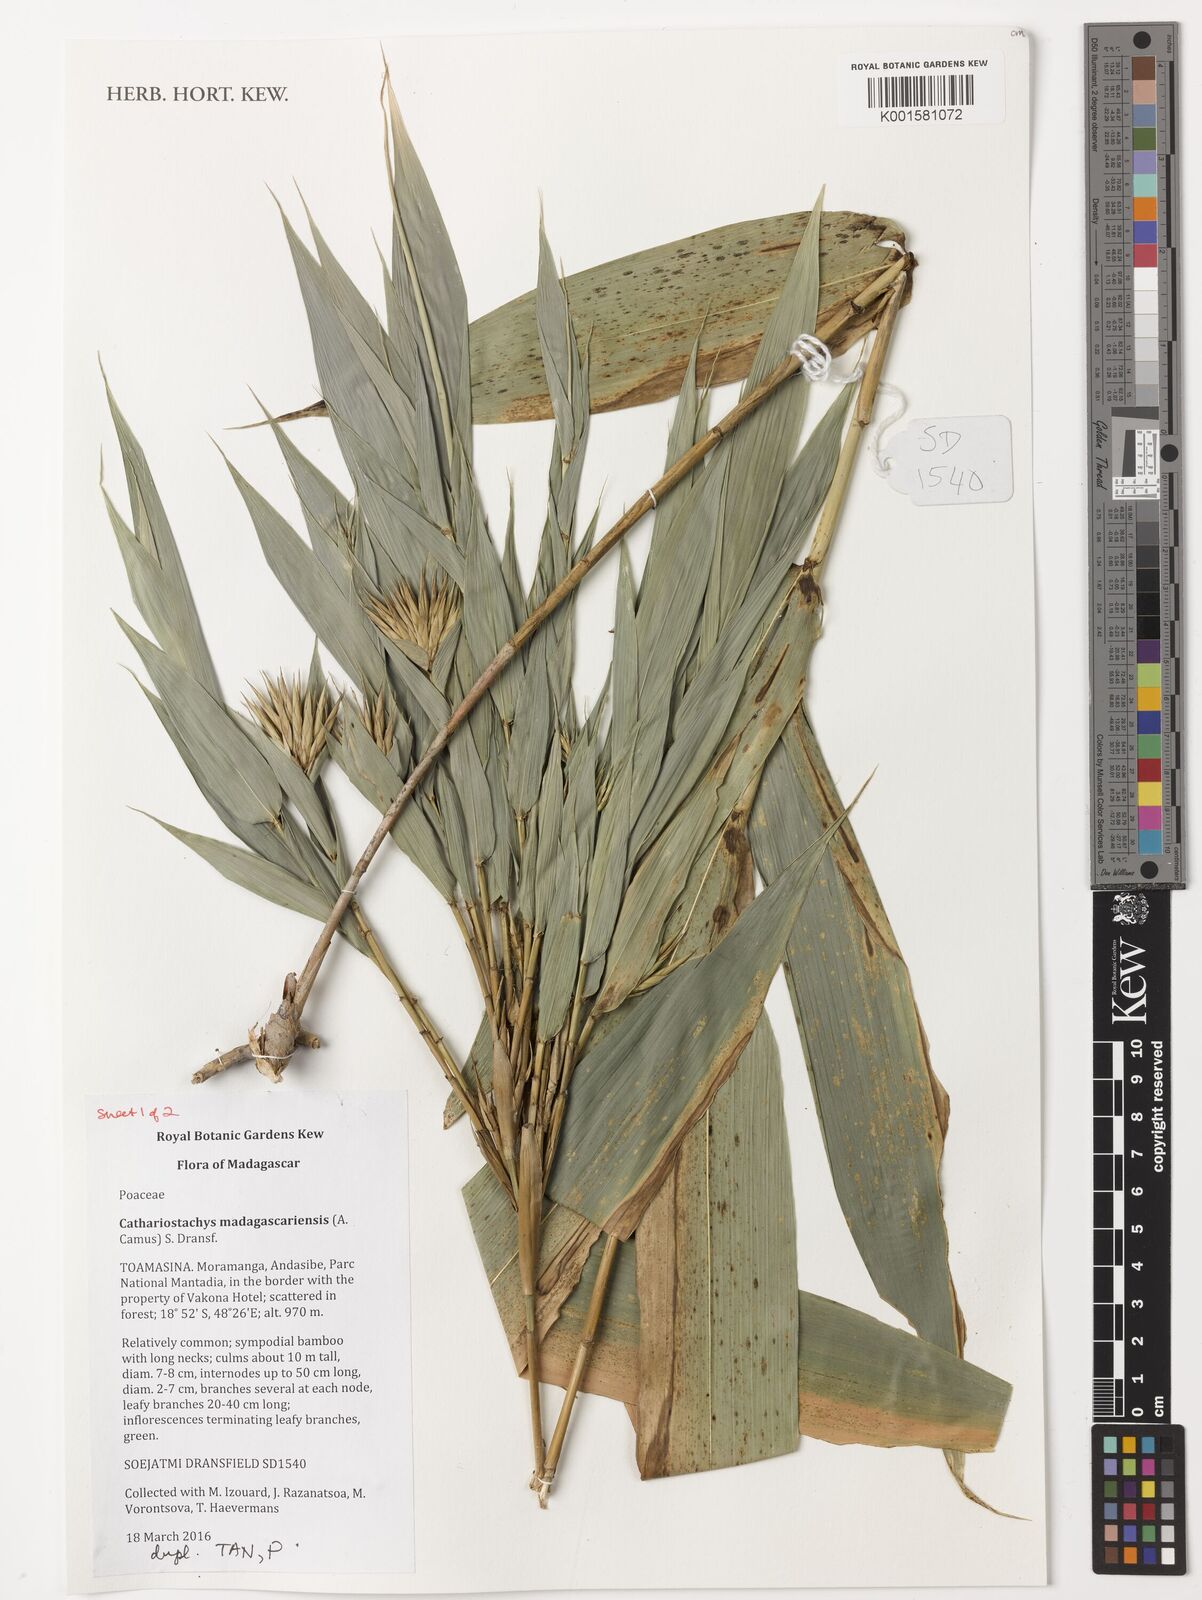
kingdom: Plantae
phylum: Tracheophyta
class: Liliopsida
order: Poales
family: Poaceae
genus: Cathariostachys
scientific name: Cathariostachys madagascariensis
